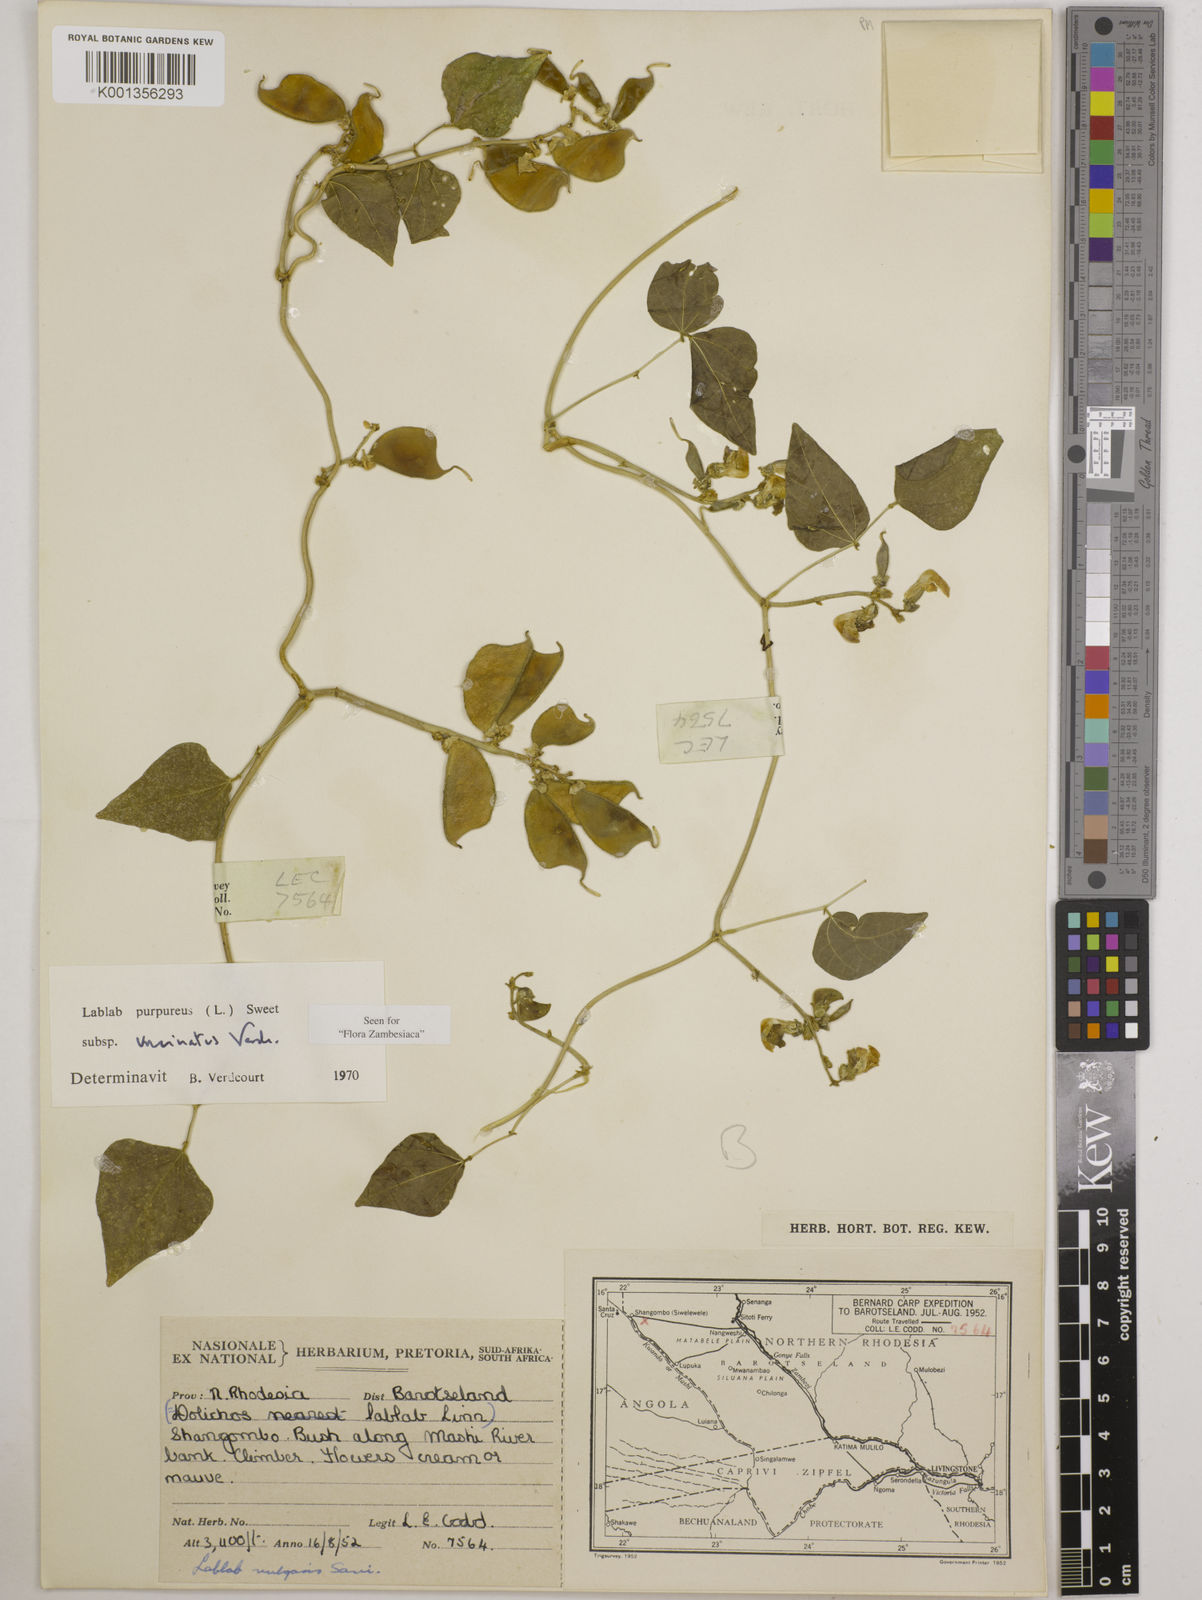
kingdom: Plantae
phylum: Tracheophyta
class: Magnoliopsida
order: Fabales
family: Fabaceae
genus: Lablab
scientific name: Lablab
